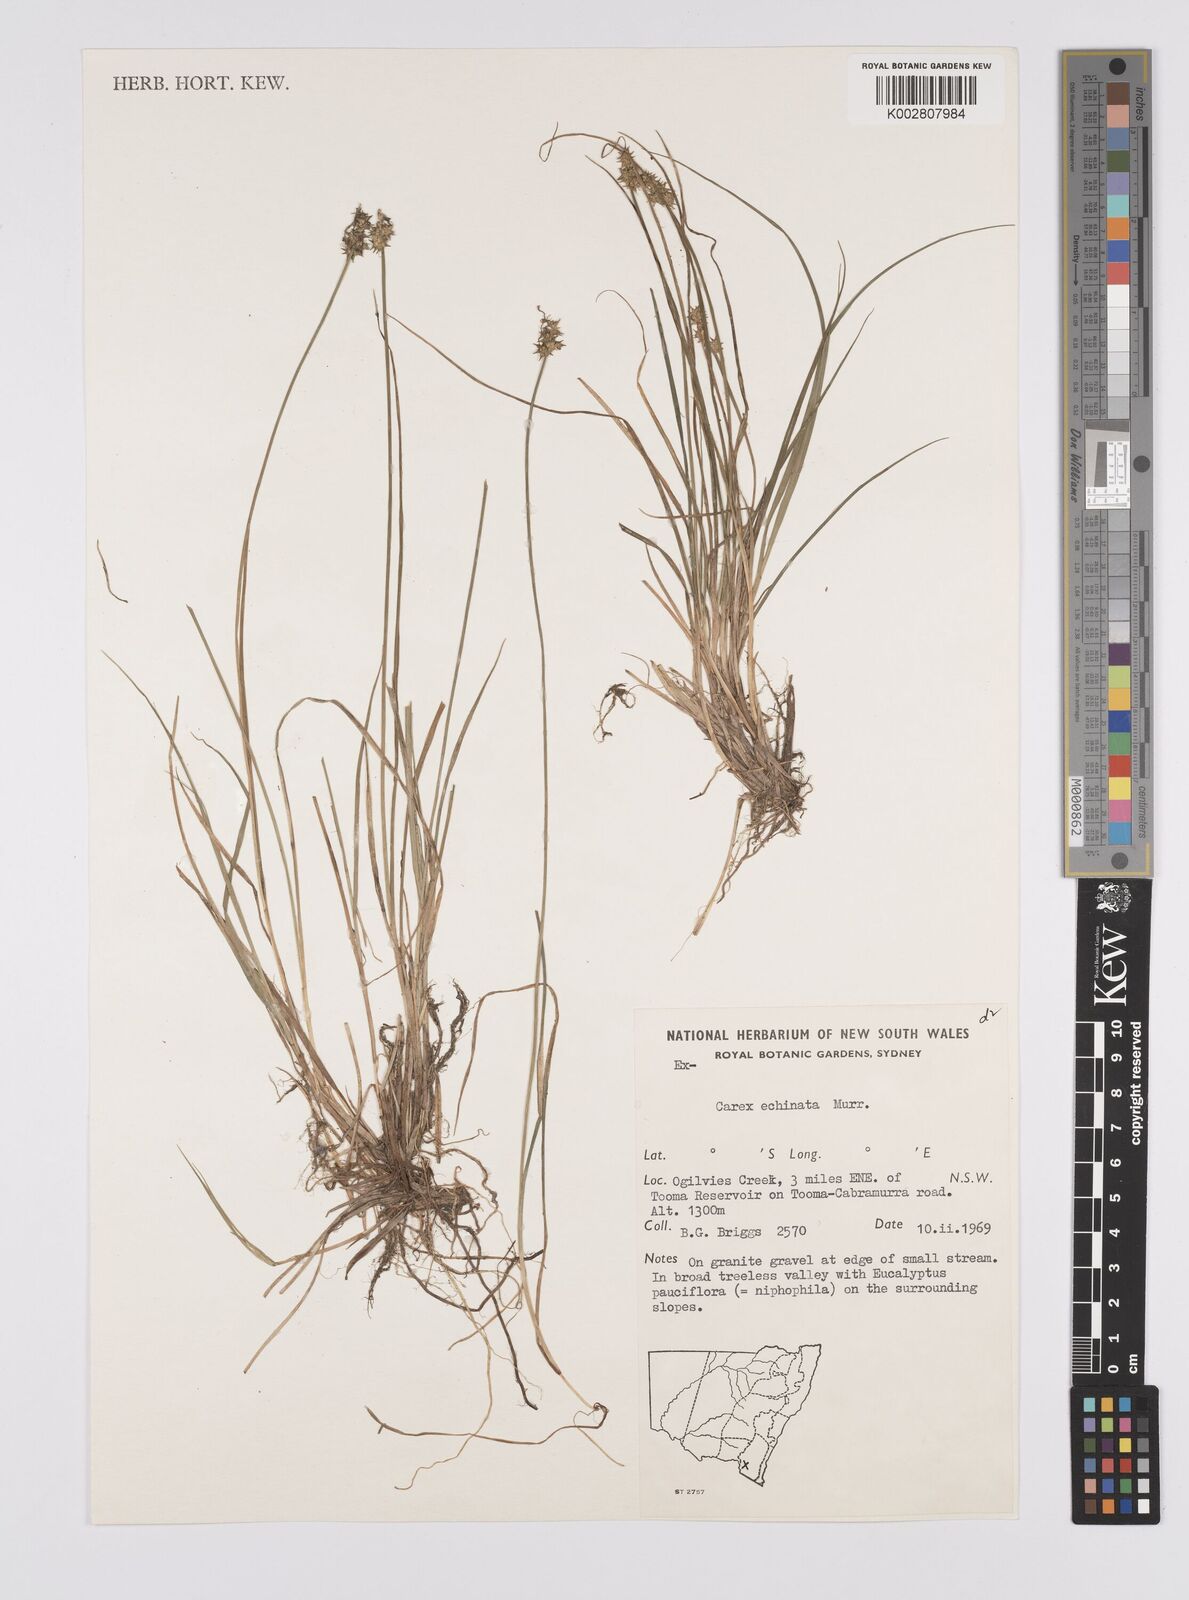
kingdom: Plantae
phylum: Tracheophyta
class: Liliopsida
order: Poales
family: Cyperaceae
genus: Carex
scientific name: Carex echinata
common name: Star sedge
